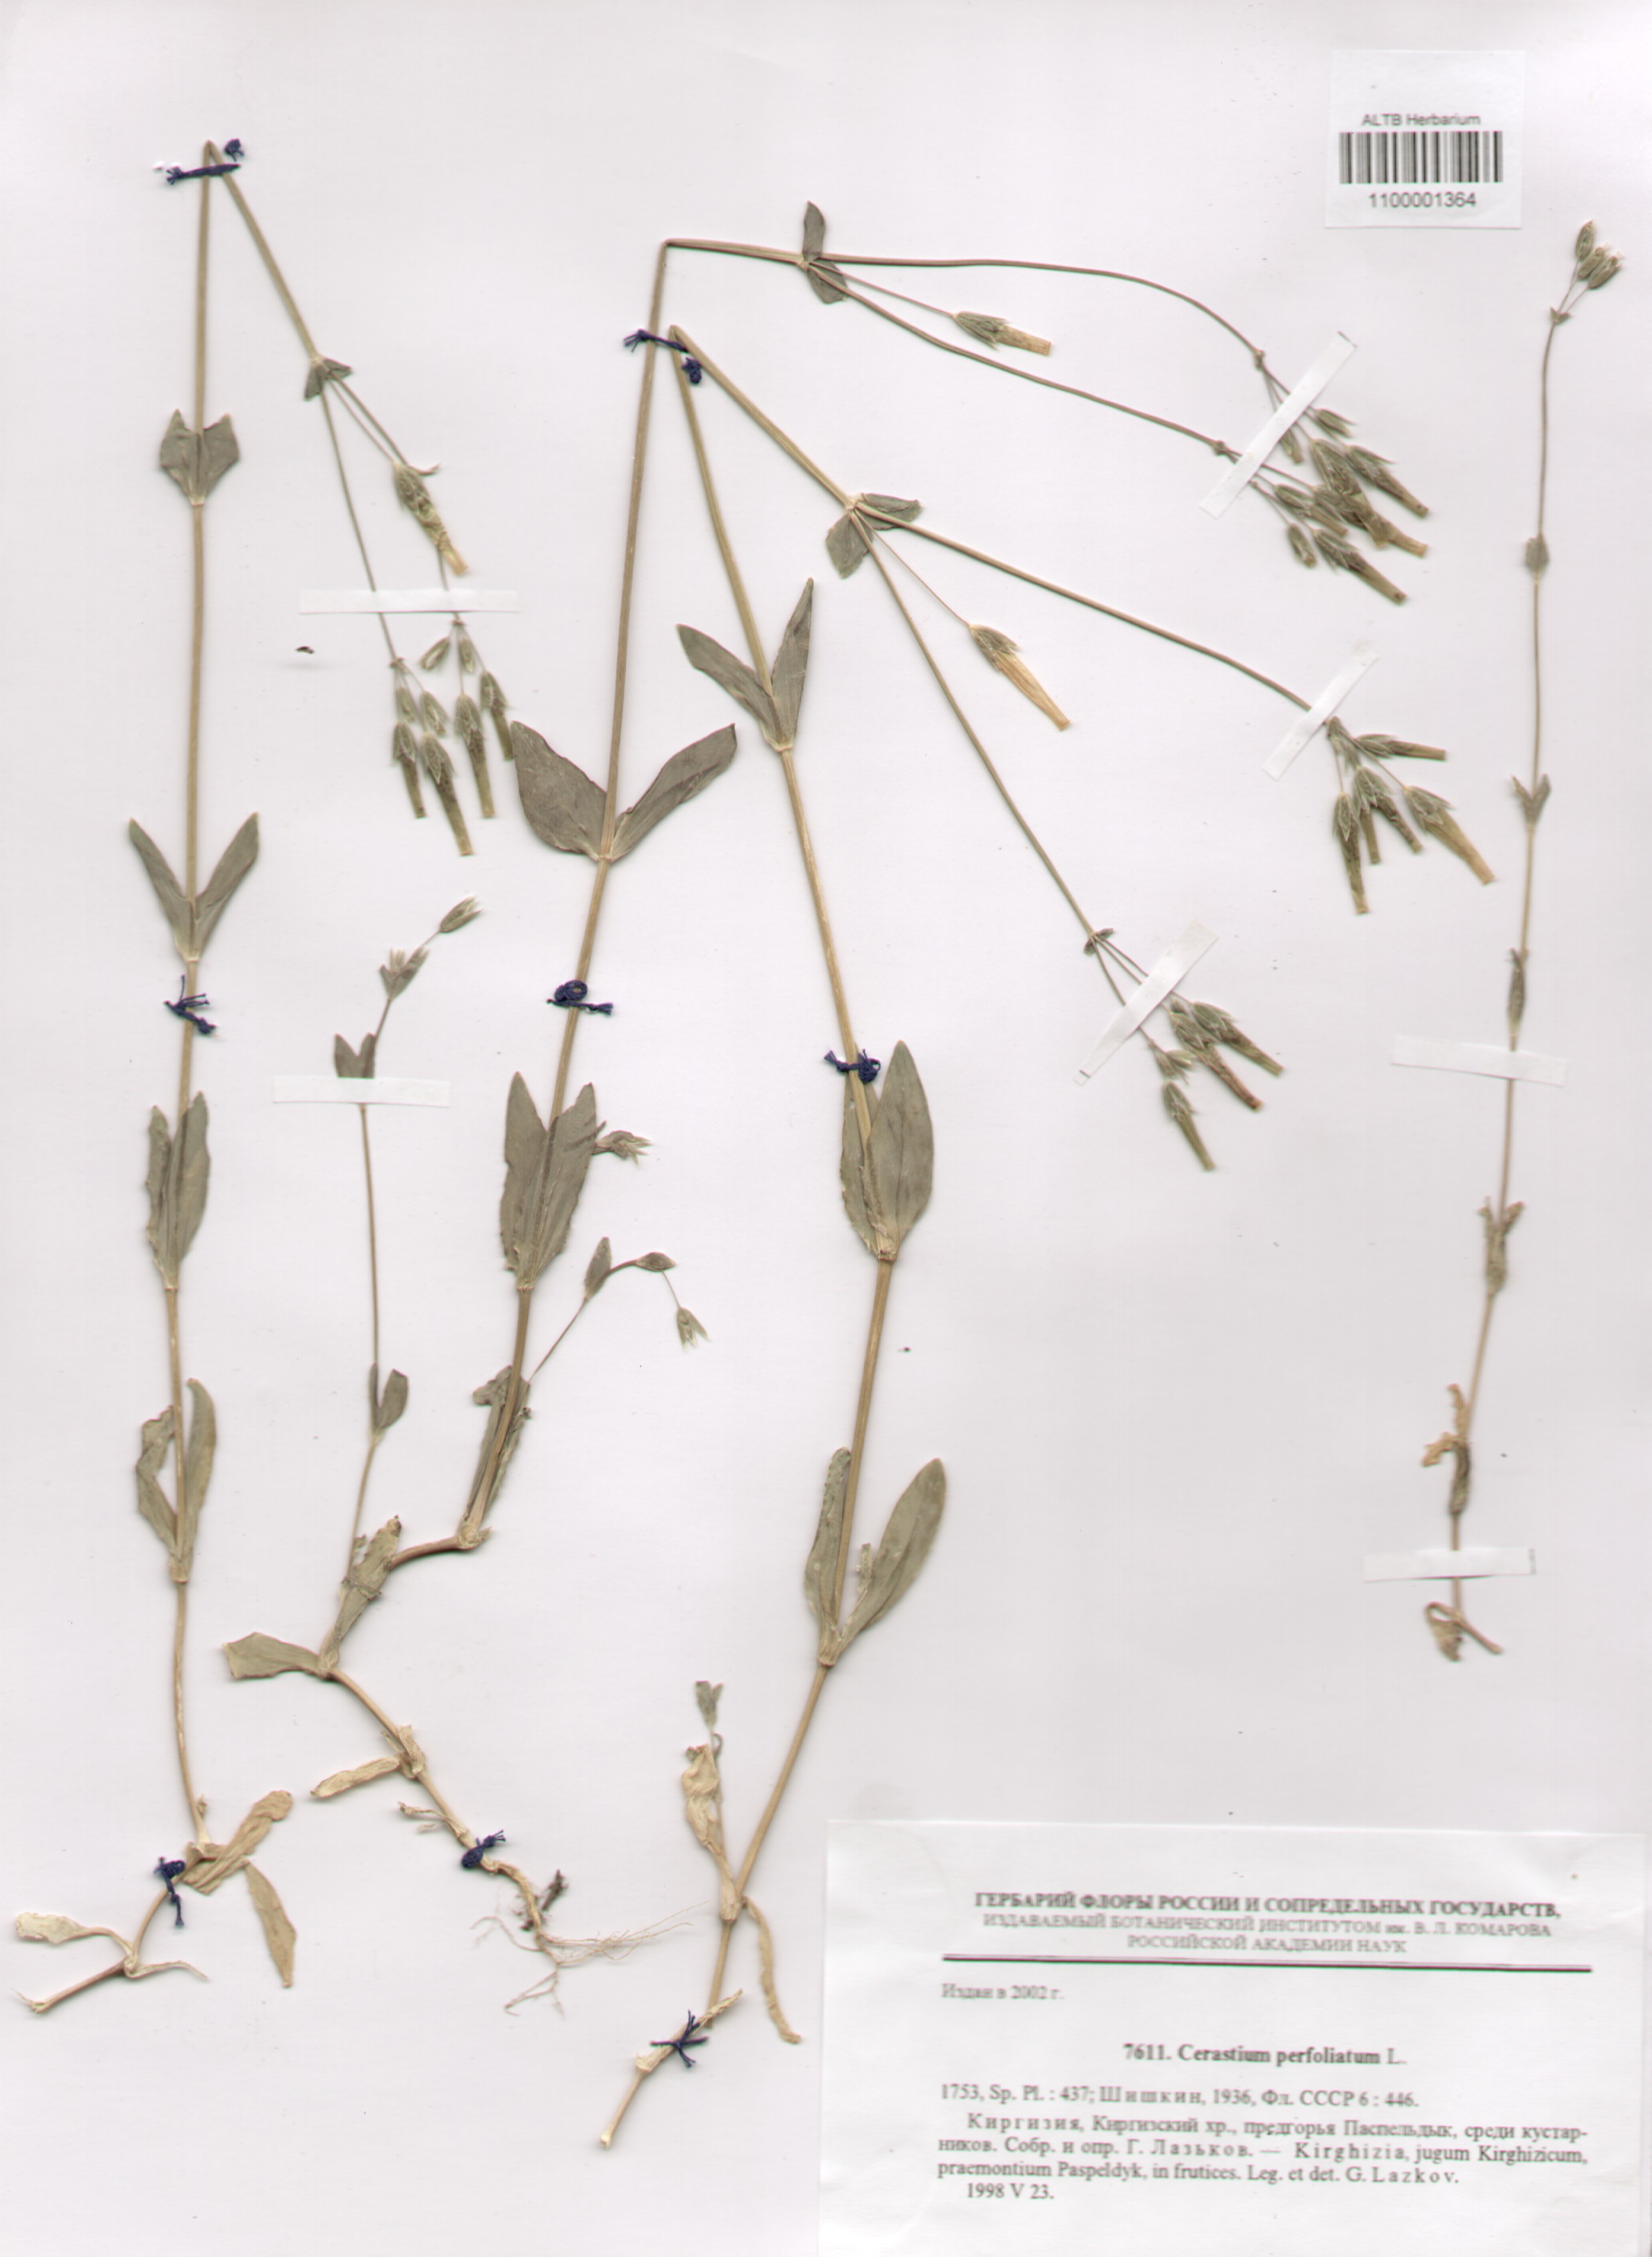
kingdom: Plantae
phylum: Tracheophyta
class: Magnoliopsida
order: Caryophyllales
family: Caryophyllaceae
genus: Dichodon
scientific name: Dichodon perfoliatum
